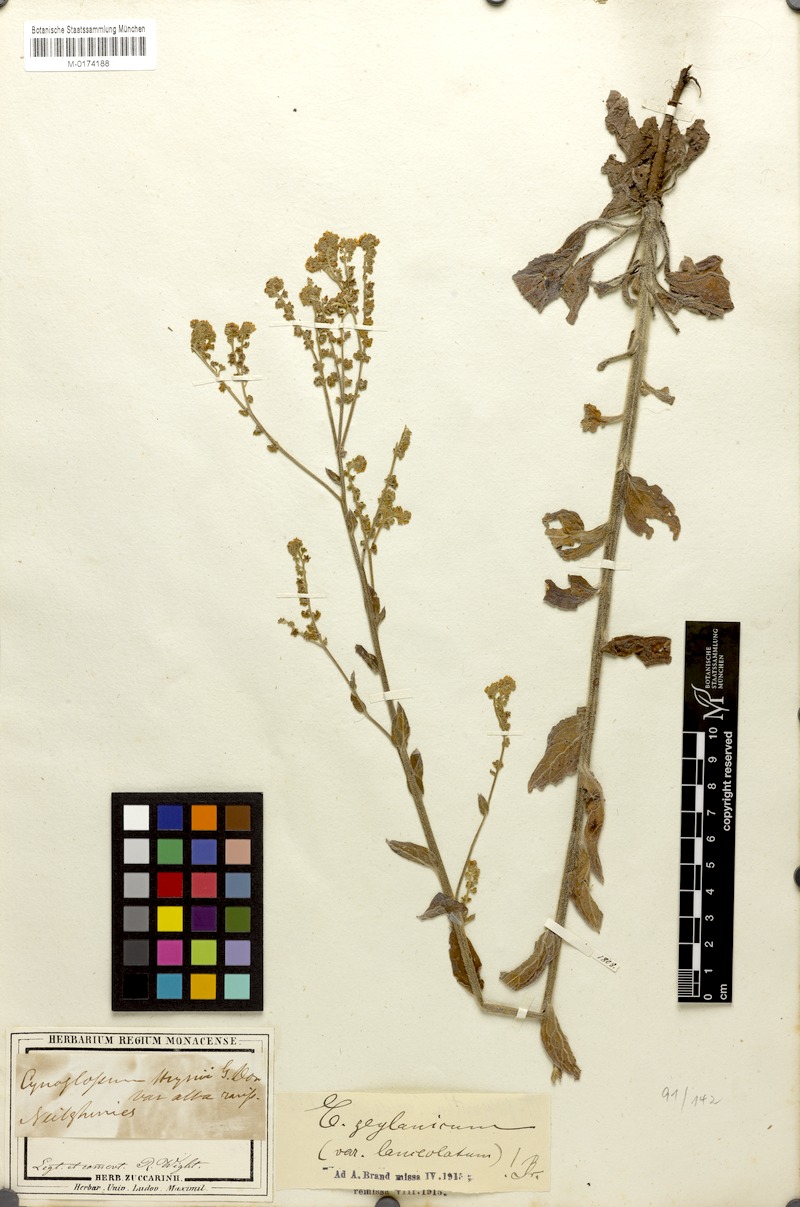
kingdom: Plantae
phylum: Tracheophyta
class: Magnoliopsida
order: Boraginales
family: Boraginaceae
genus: Rochelia
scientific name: Rochelia zeylanica
